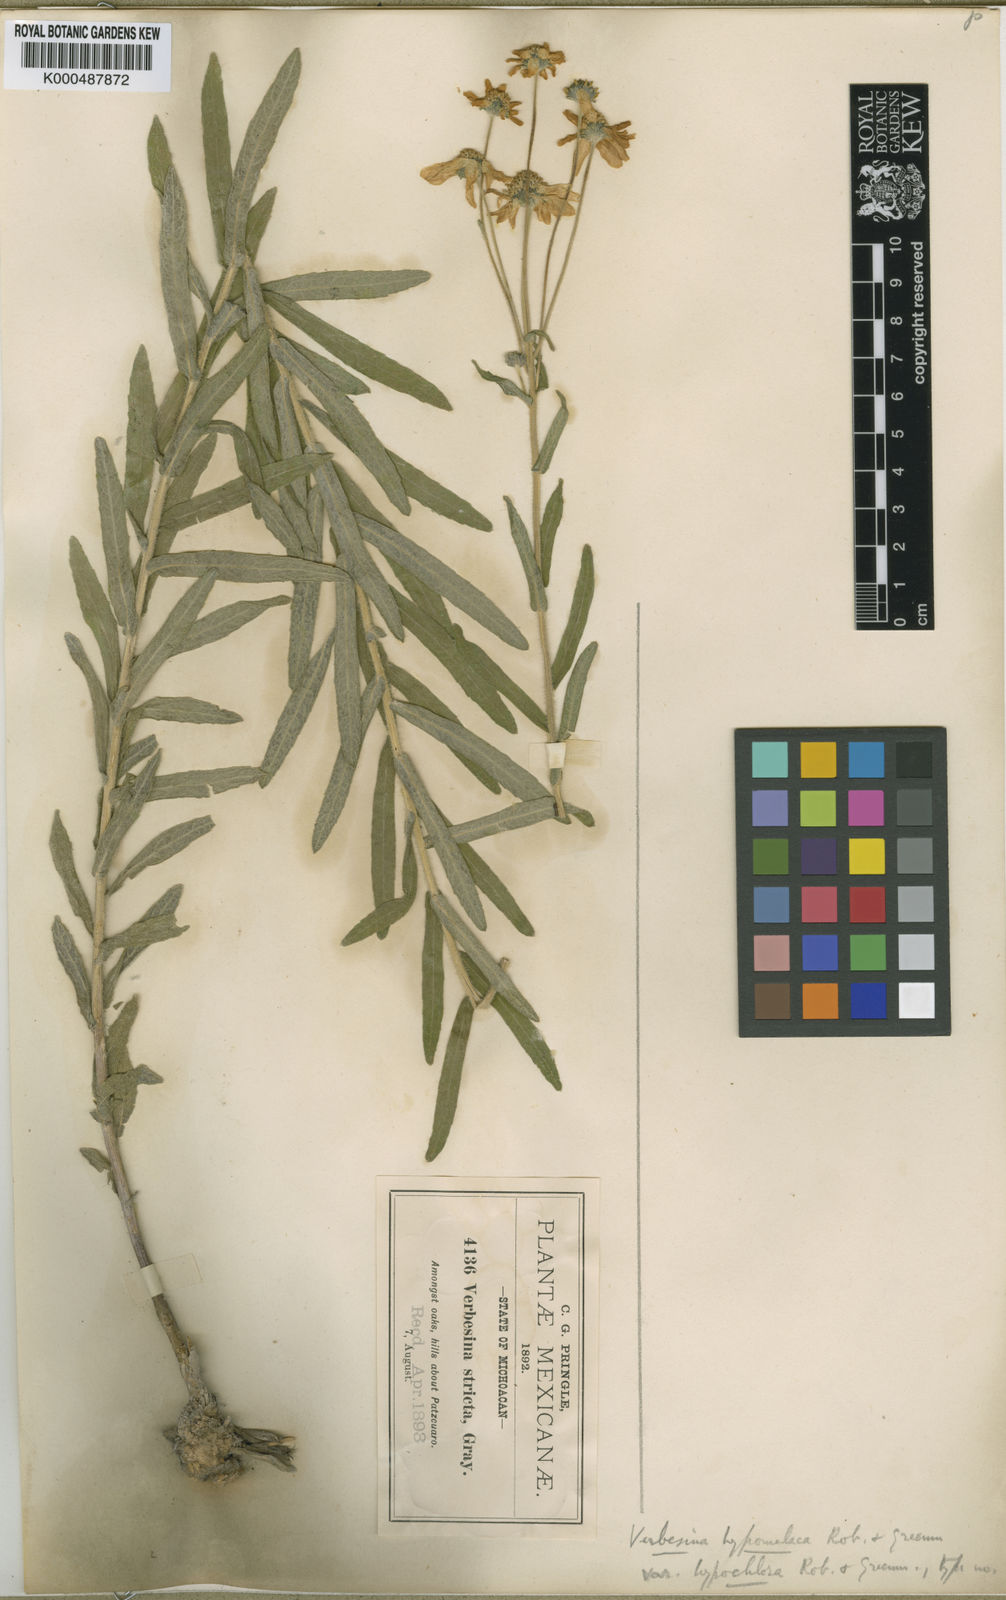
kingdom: Plantae
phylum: Tracheophyta
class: Magnoliopsida
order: Asterales
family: Asteraceae
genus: Verbesina
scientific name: Verbesina hypomalaca
